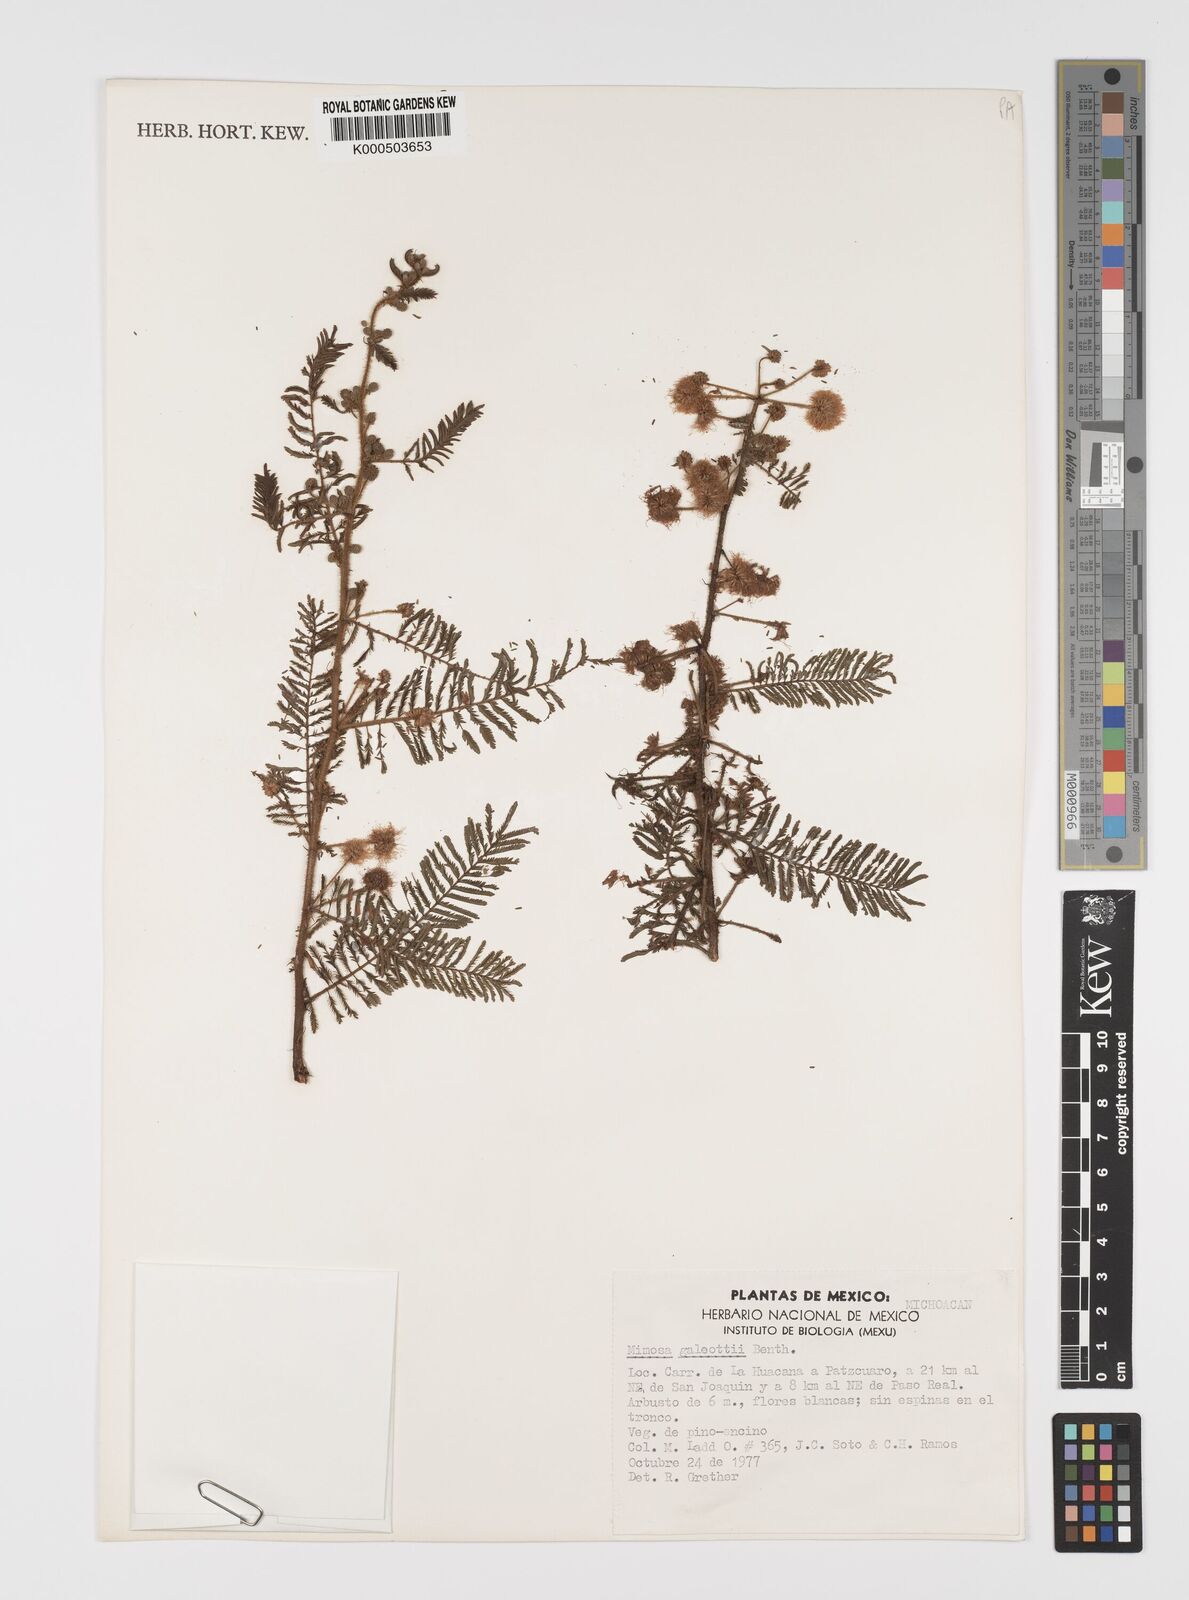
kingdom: Plantae
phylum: Tracheophyta
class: Magnoliopsida
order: Fabales
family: Fabaceae
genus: Mimosa
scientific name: Mimosa galeottii
